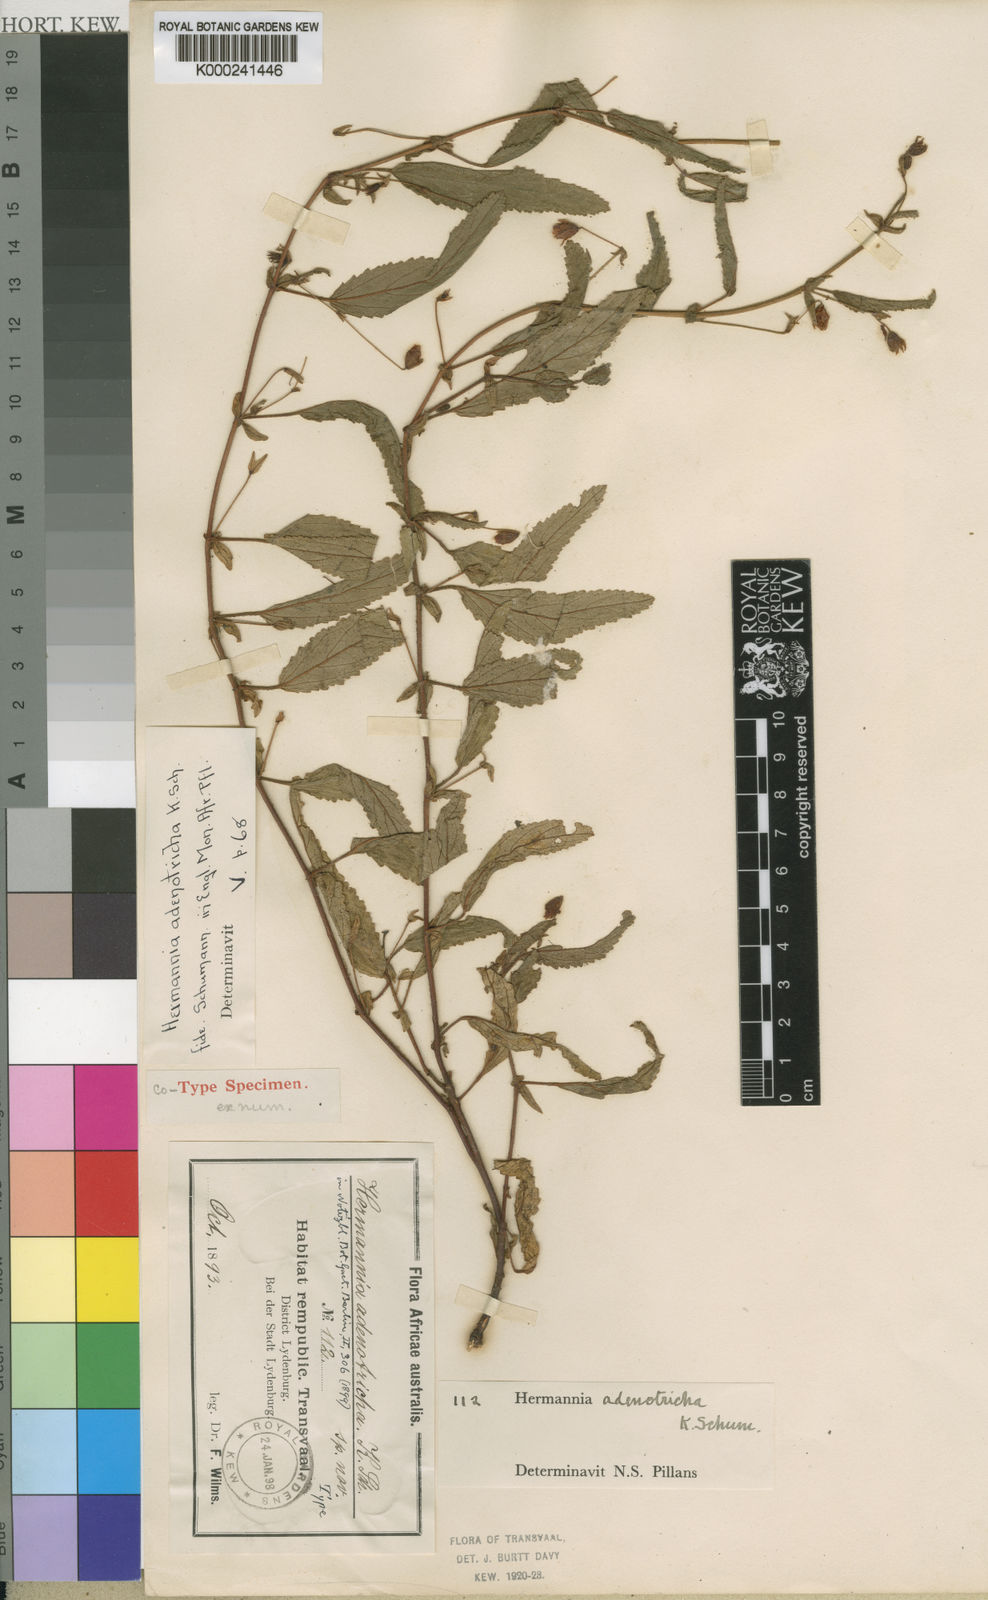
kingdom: Plantae
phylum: Tracheophyta
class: Magnoliopsida
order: Malvales
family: Malvaceae
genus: Hermannia
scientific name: Hermannia stellulata
